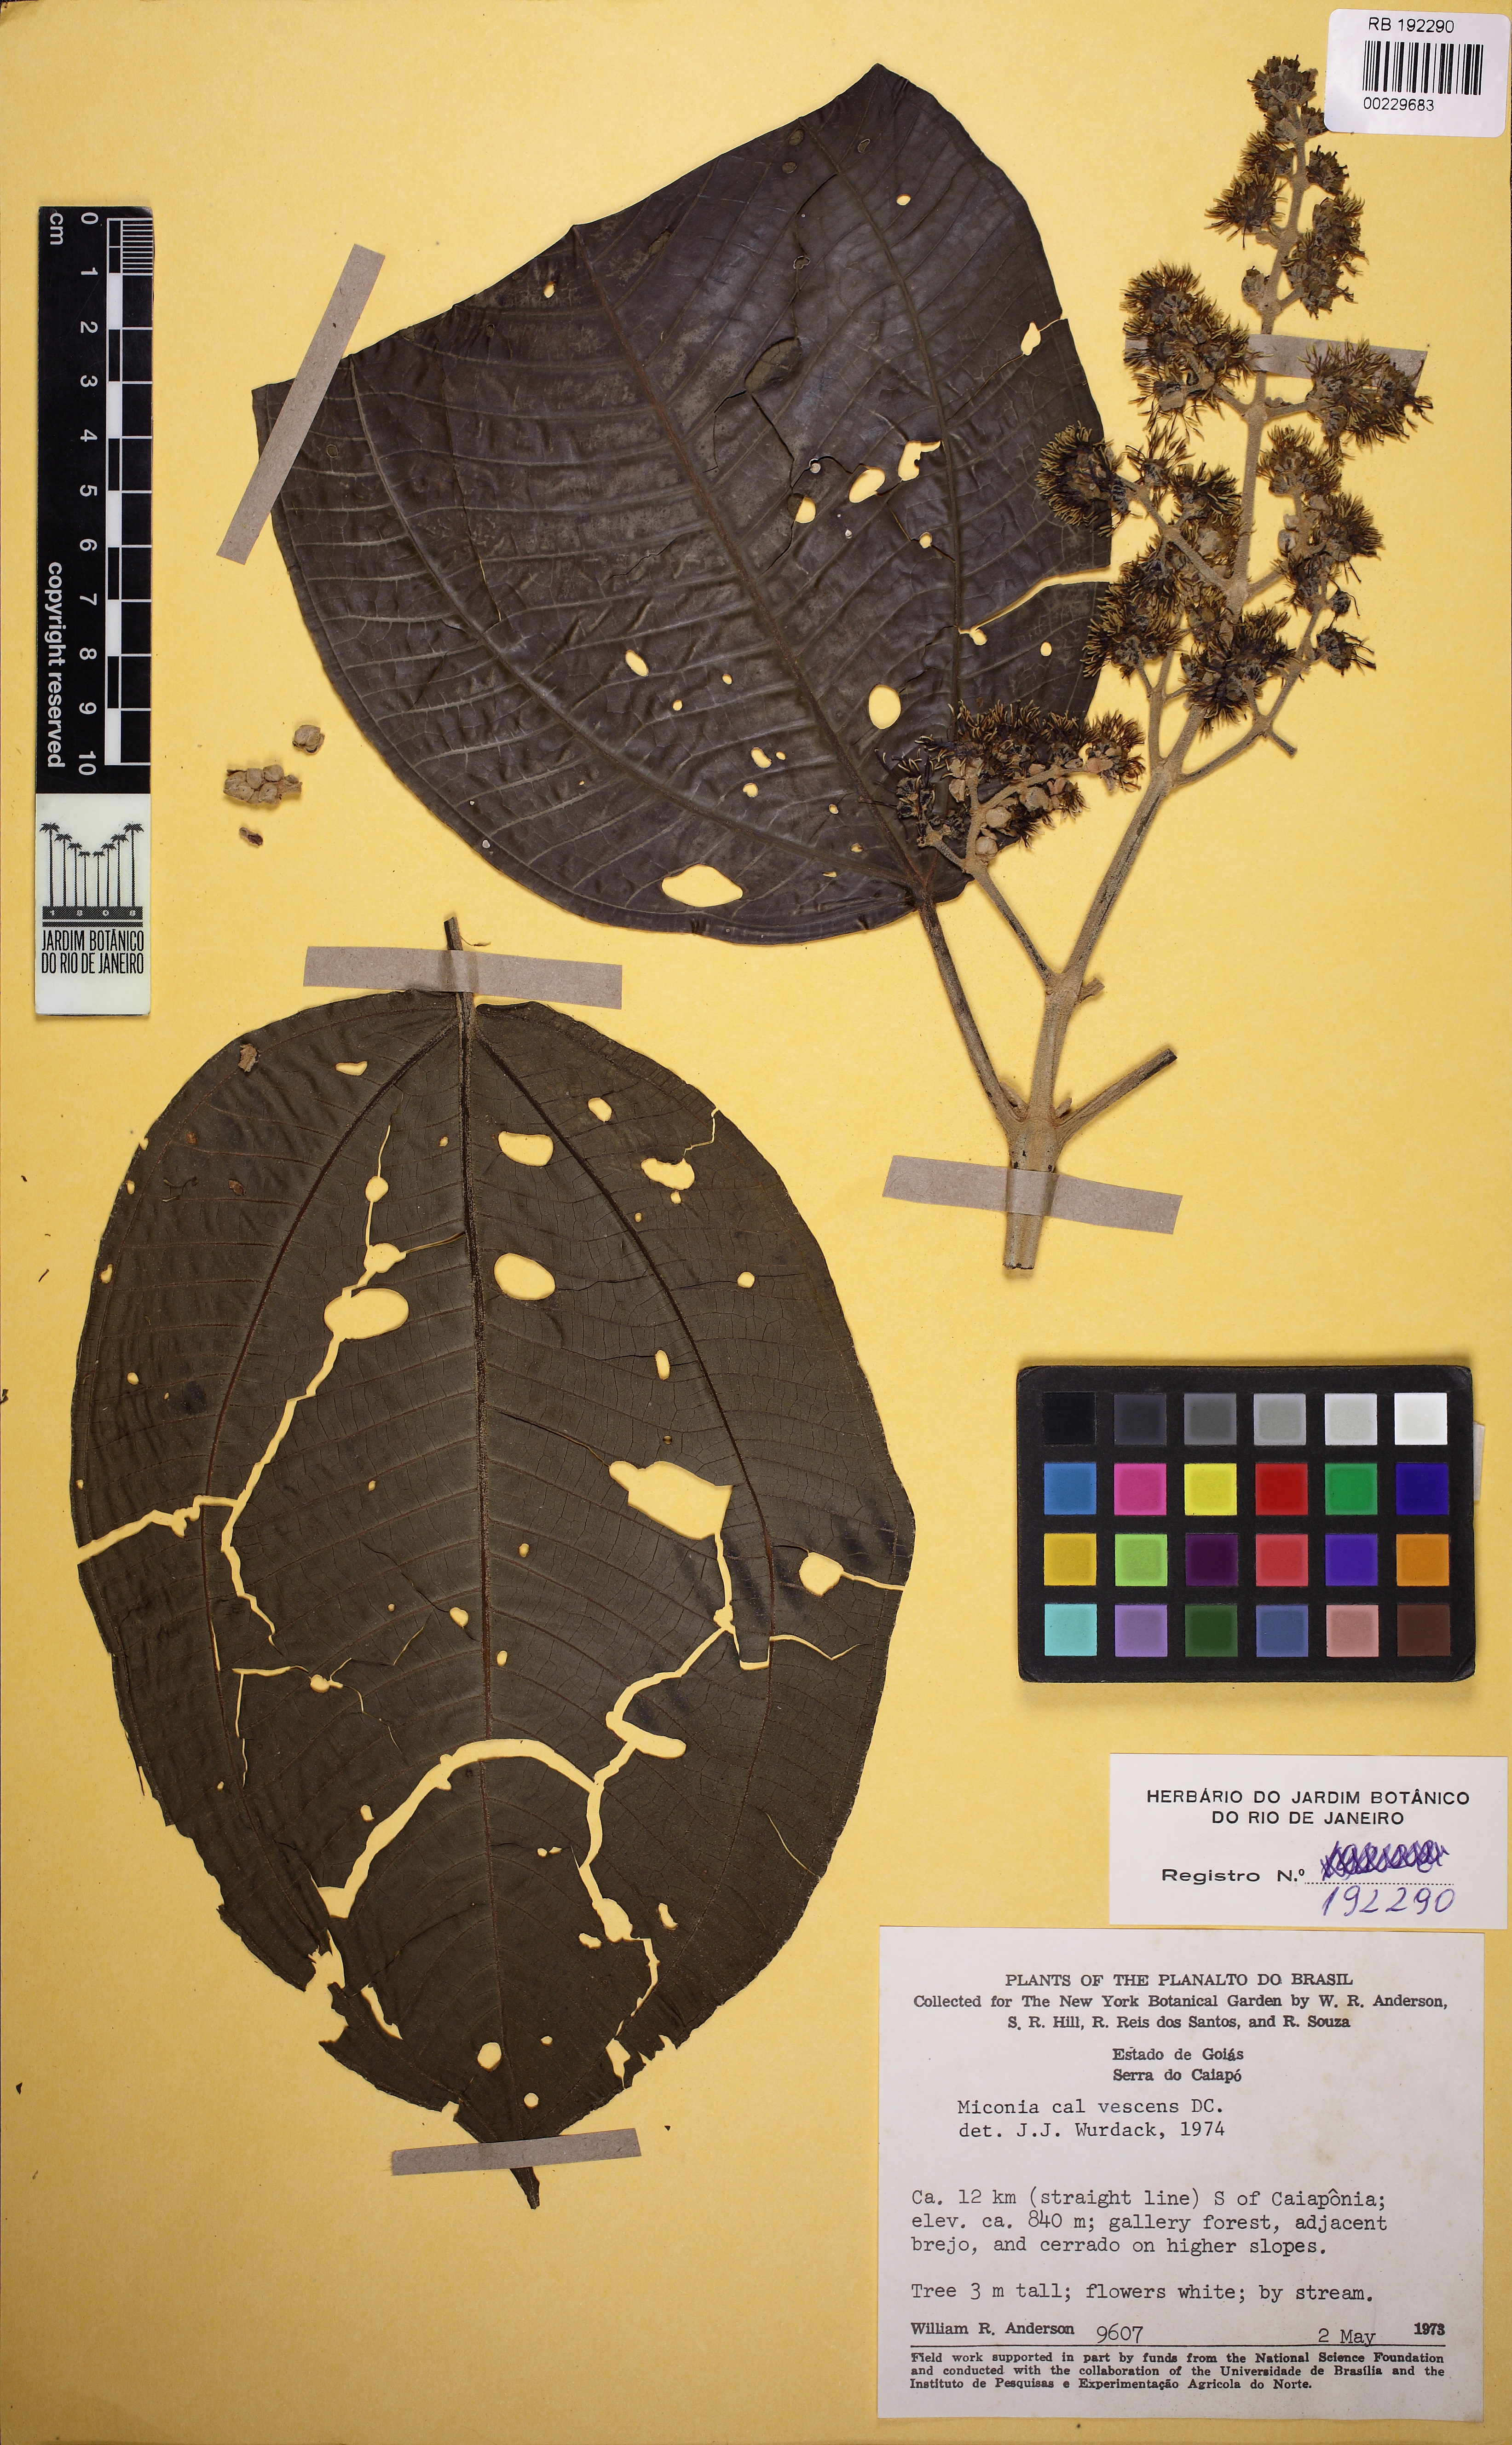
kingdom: Plantae
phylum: Tracheophyta
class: Magnoliopsida
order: Myrtales
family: Melastomataceae
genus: Miconia
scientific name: Miconia calvescens
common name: Purple plague
